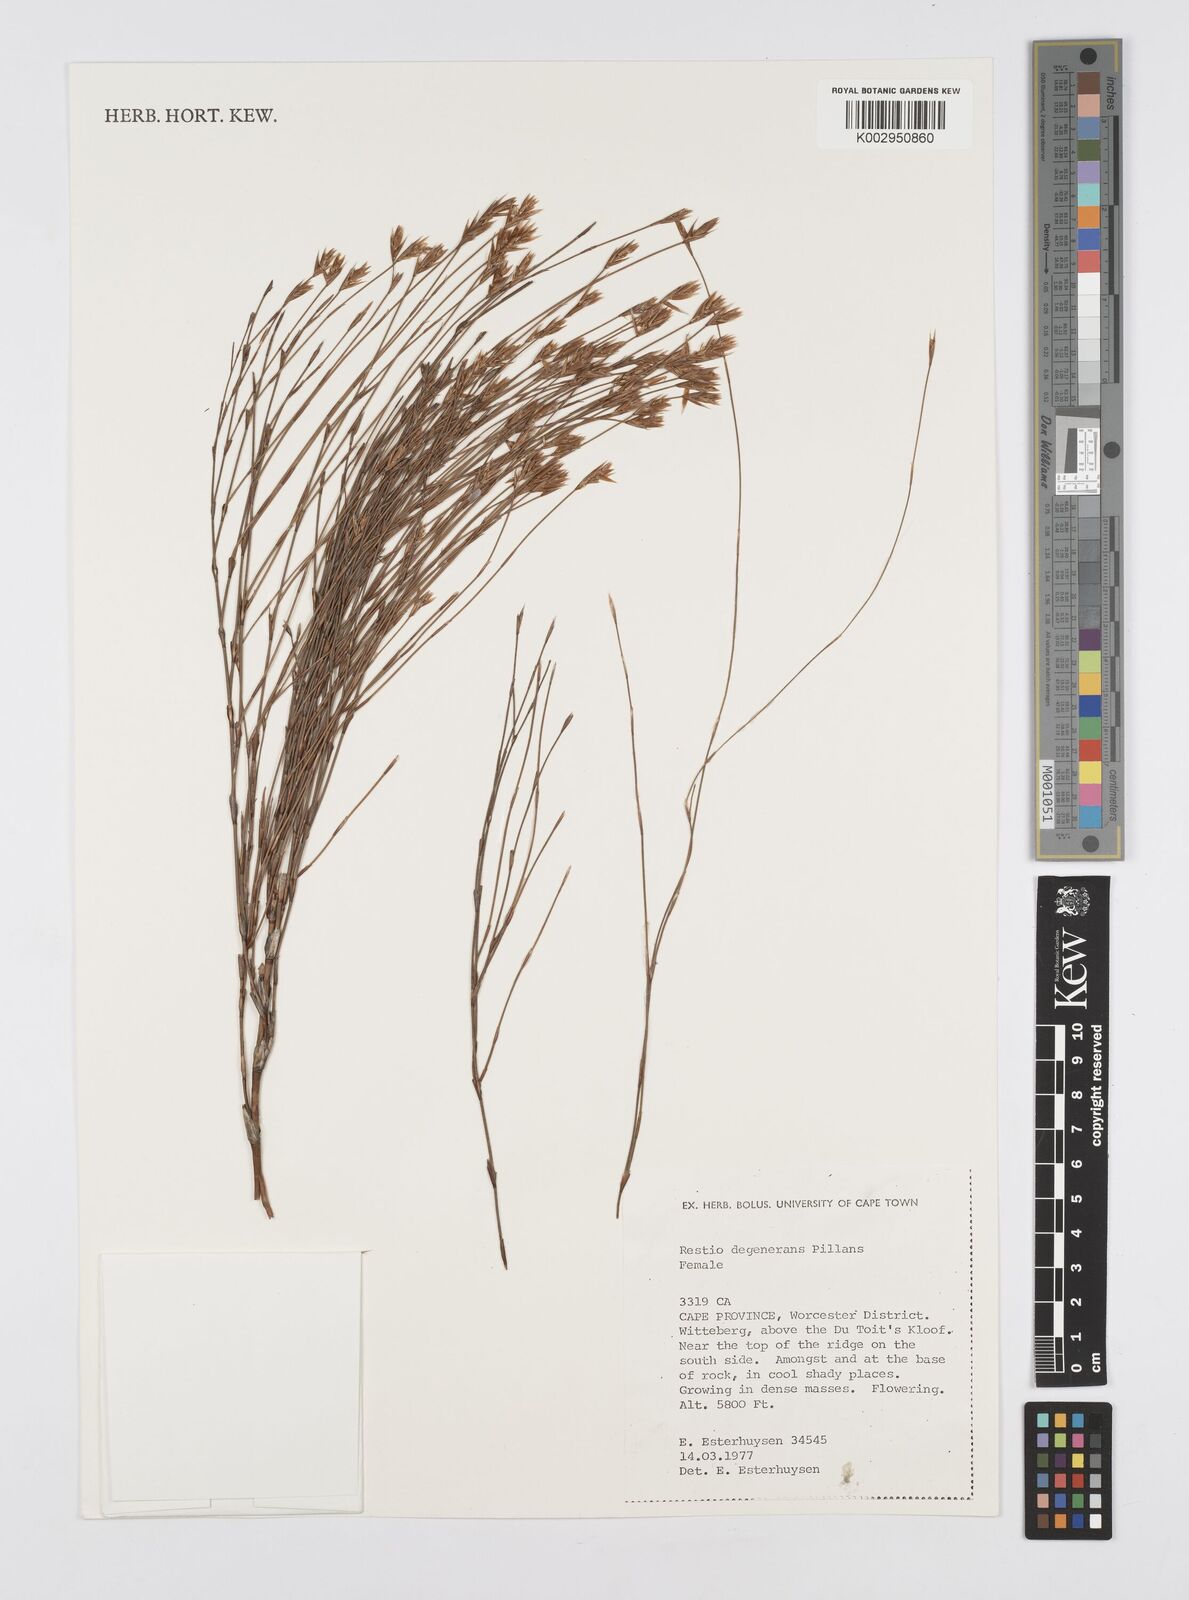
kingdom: Plantae
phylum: Tracheophyta
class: Liliopsida
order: Poales
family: Restionaceae
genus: Restio
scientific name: Restio degenerans
